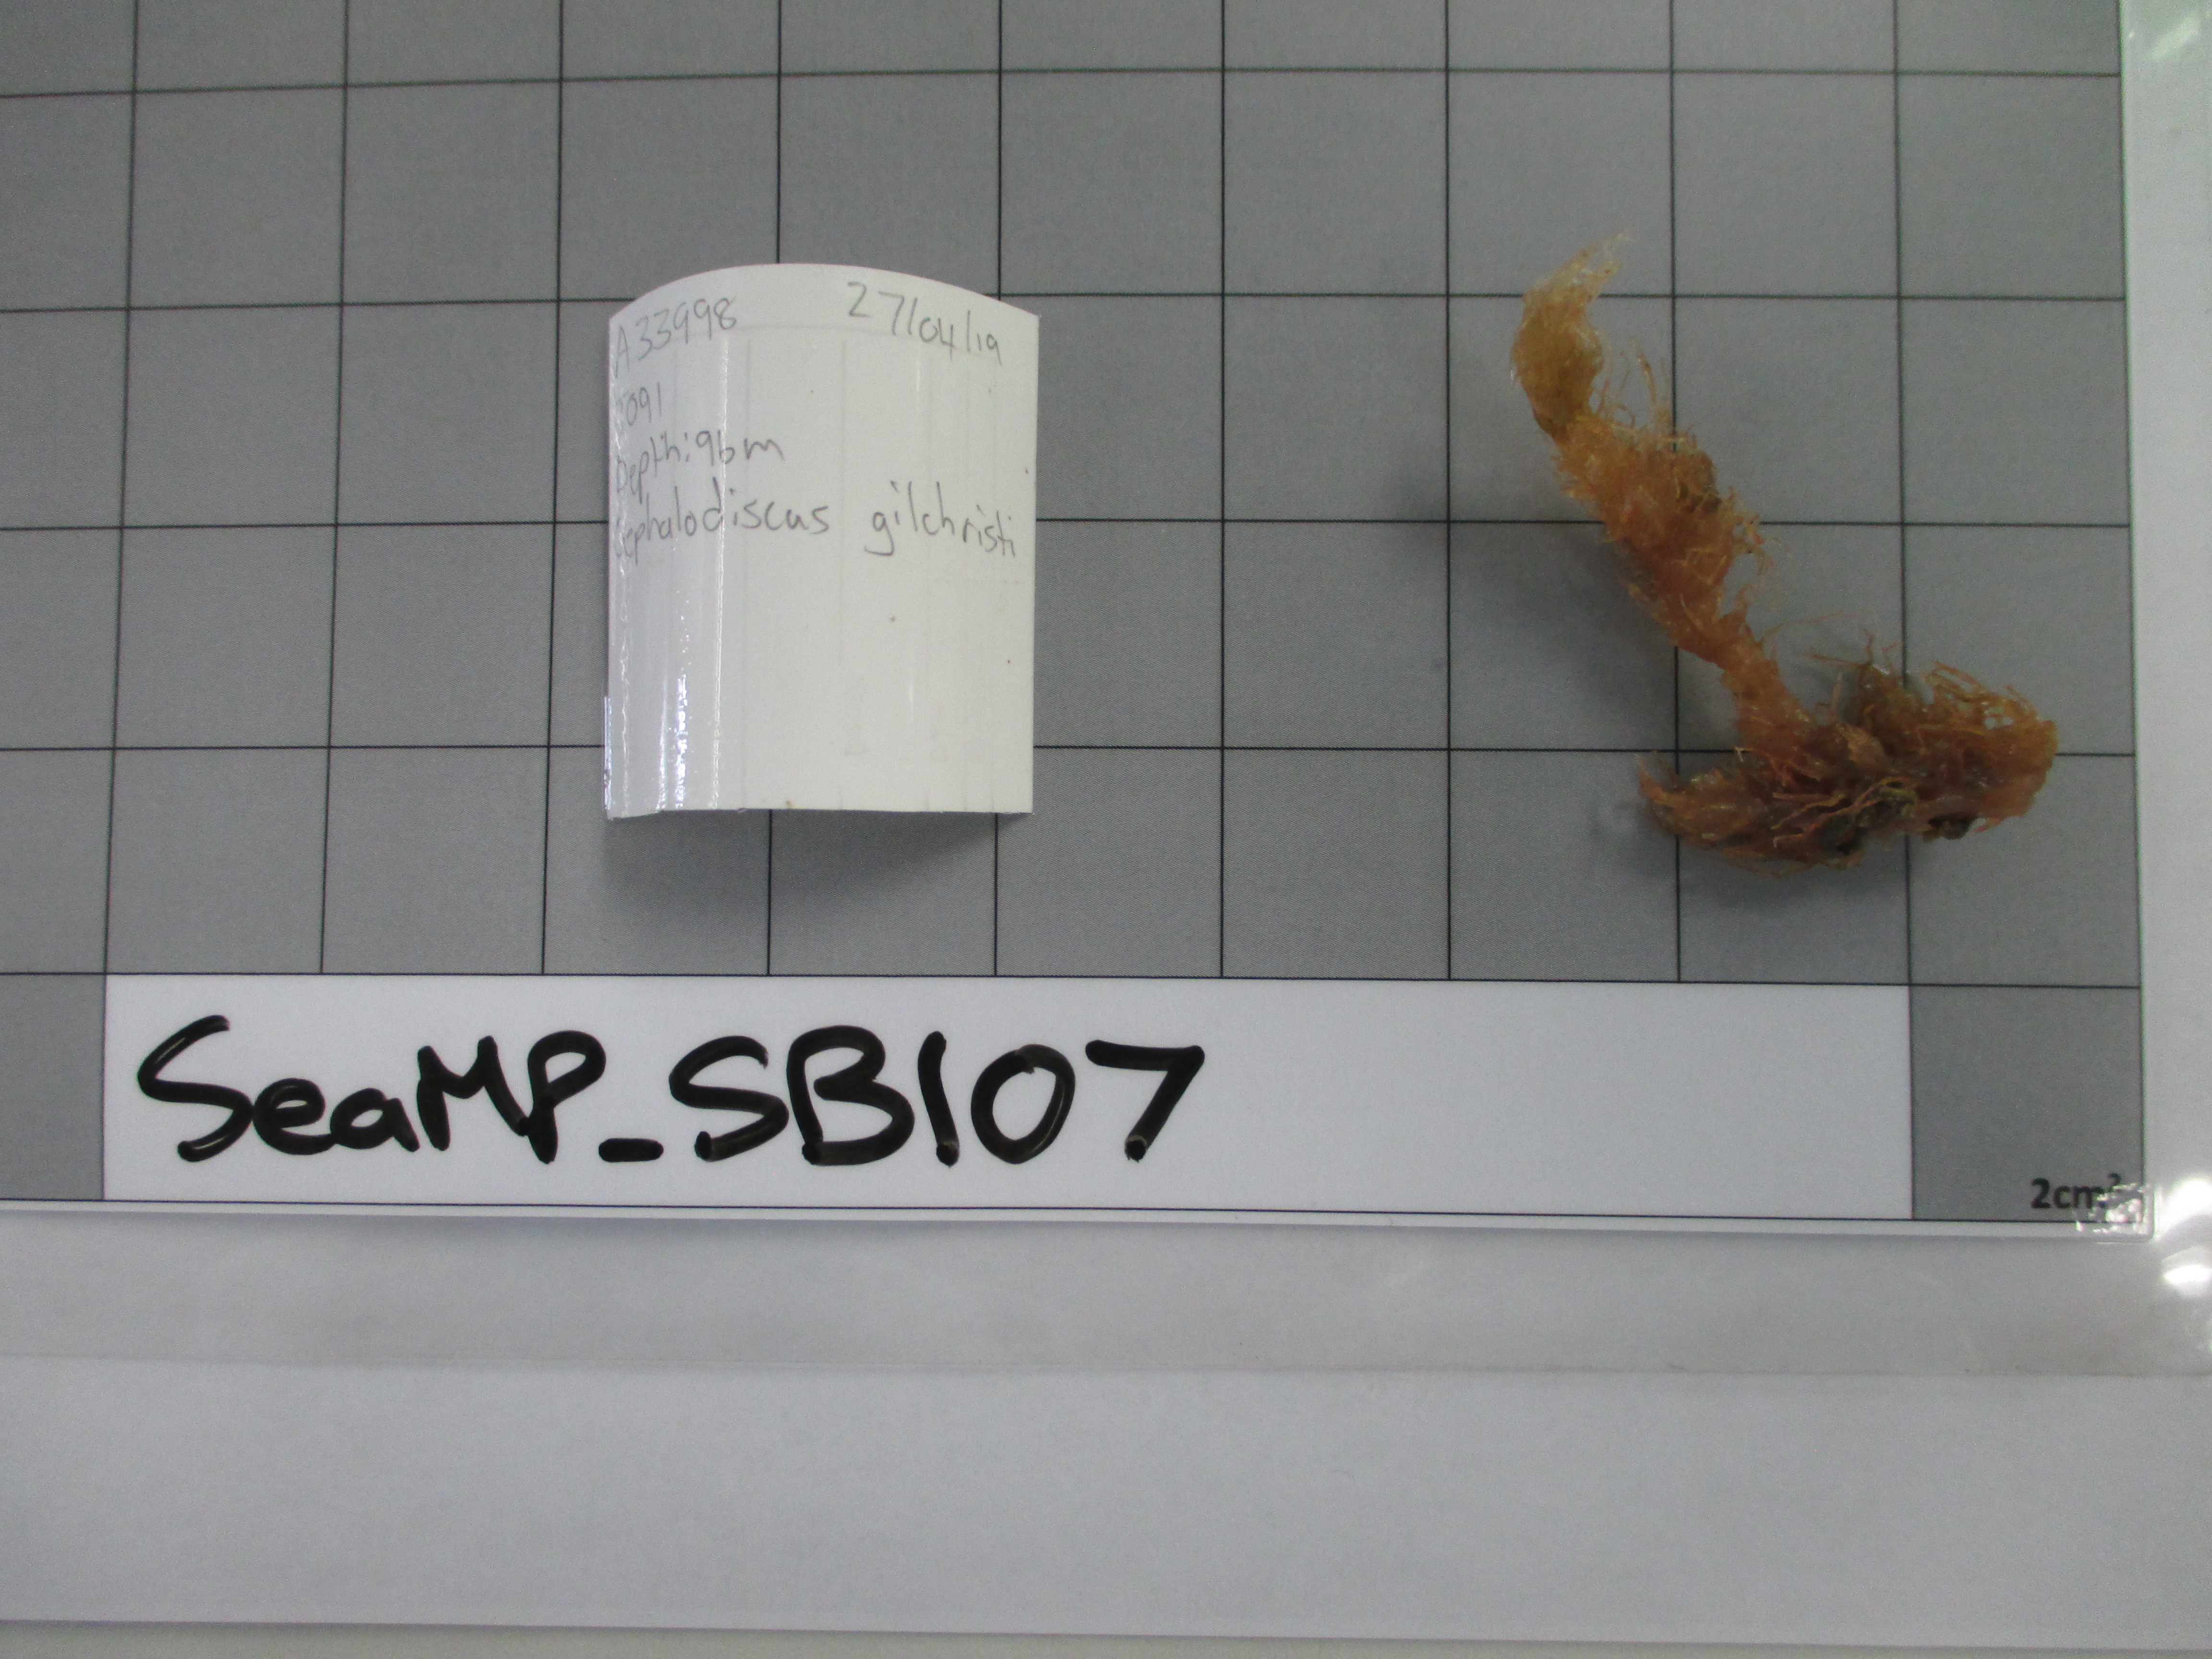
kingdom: Animalia
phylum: Hemichordata
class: Pterobranchia
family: Cephalodiscidae
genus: Cephalodiscus
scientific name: Cephalodiscus gilchristi
